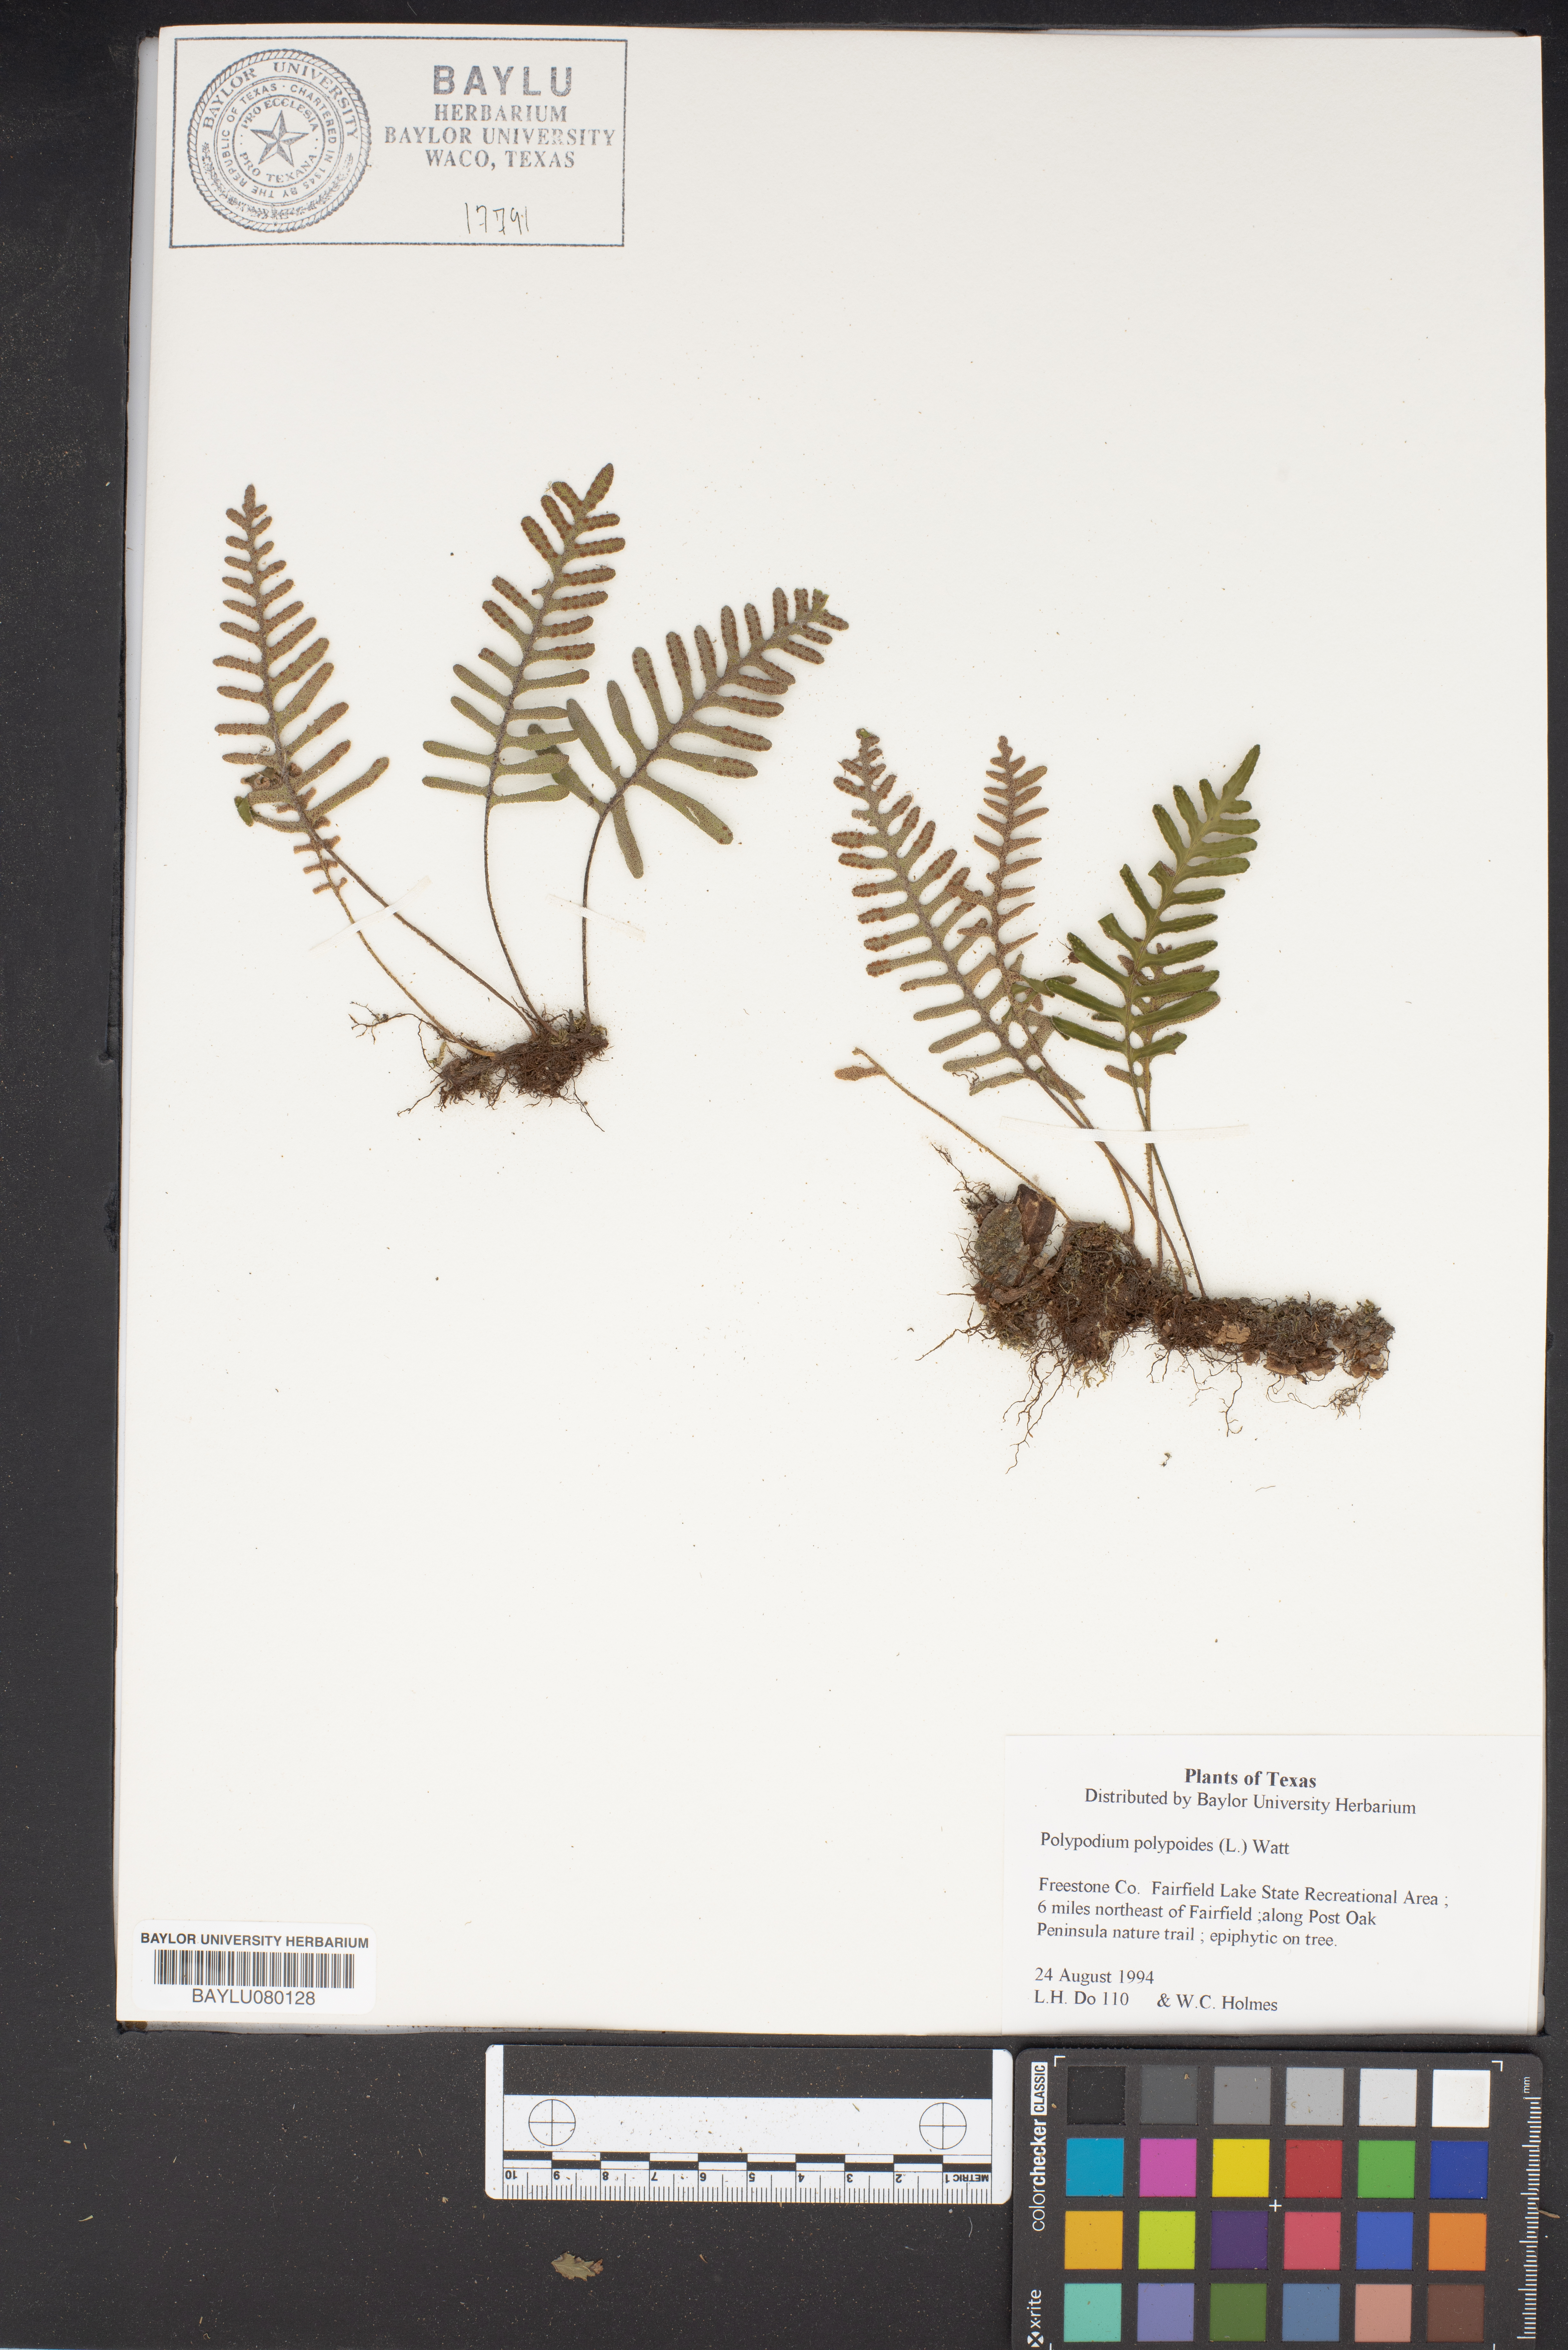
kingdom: Plantae
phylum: Tracheophyta
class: Polypodiopsida
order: Polypodiales
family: Polypodiaceae
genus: Pleopeltis
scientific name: Pleopeltis polypodioides
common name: Resurrection fern
